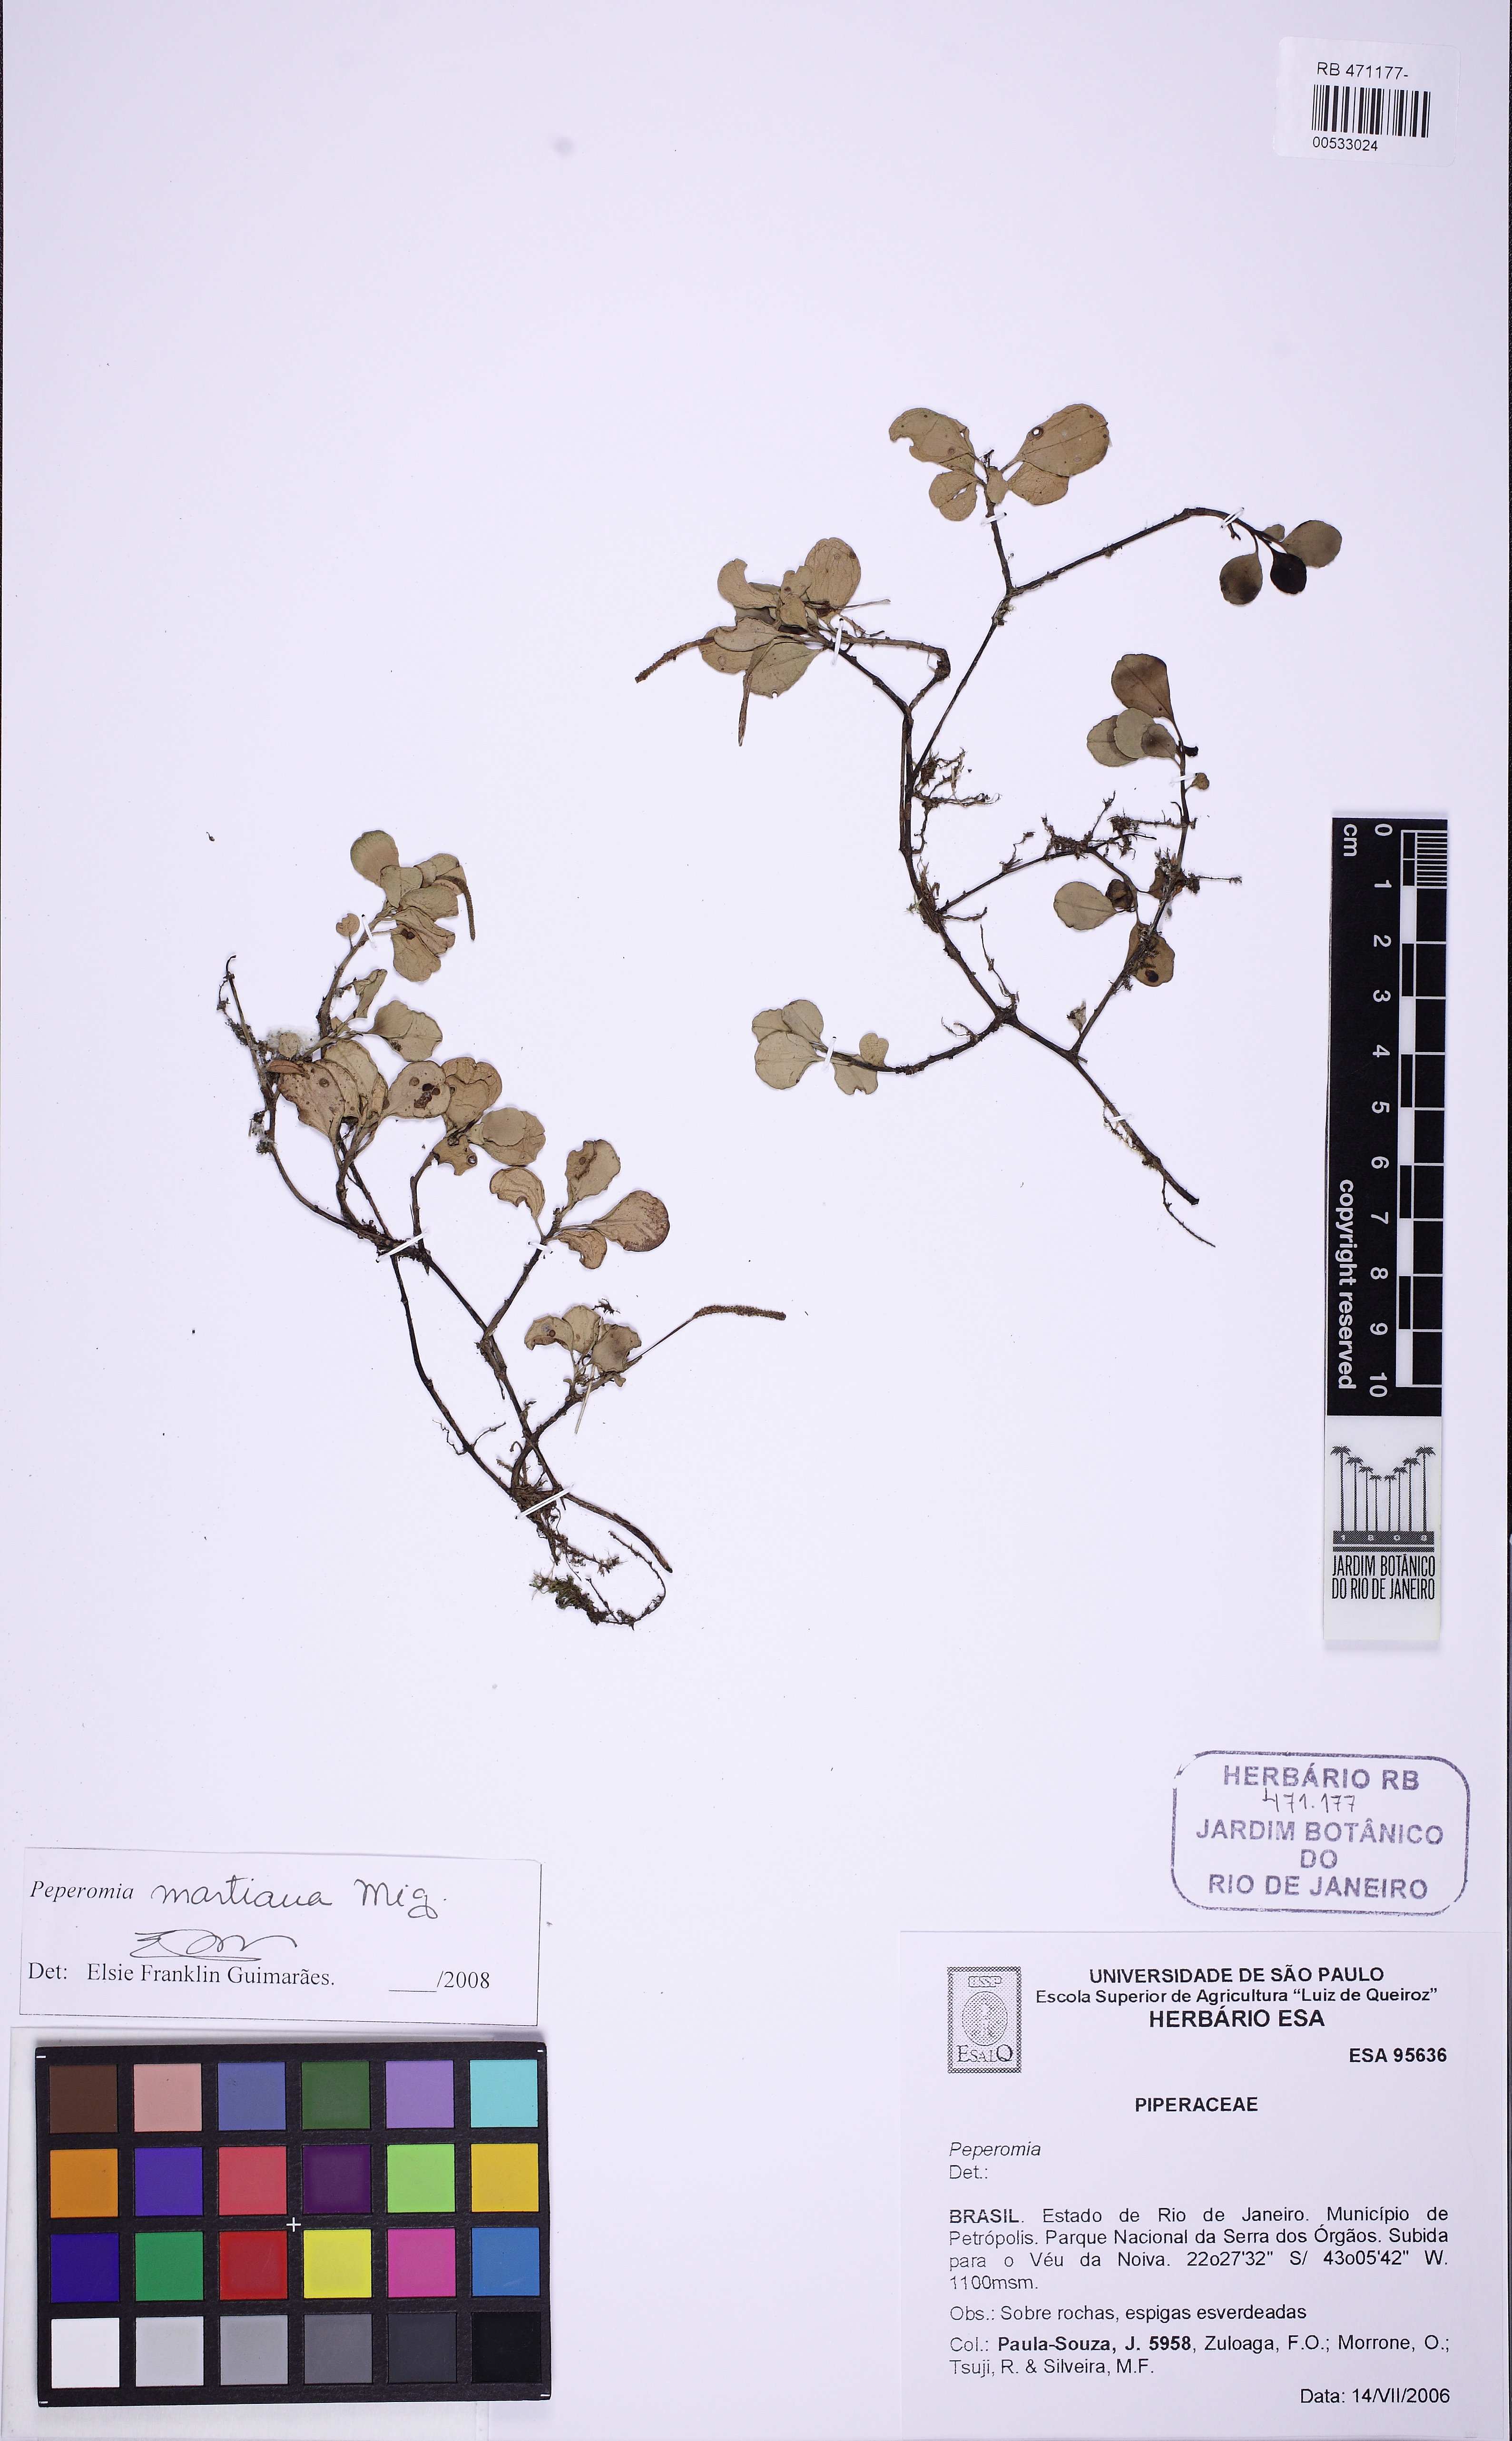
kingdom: Plantae
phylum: Tracheophyta
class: Magnoliopsida
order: Piperales
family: Piperaceae
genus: Peperomia
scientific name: Peperomia martiana
